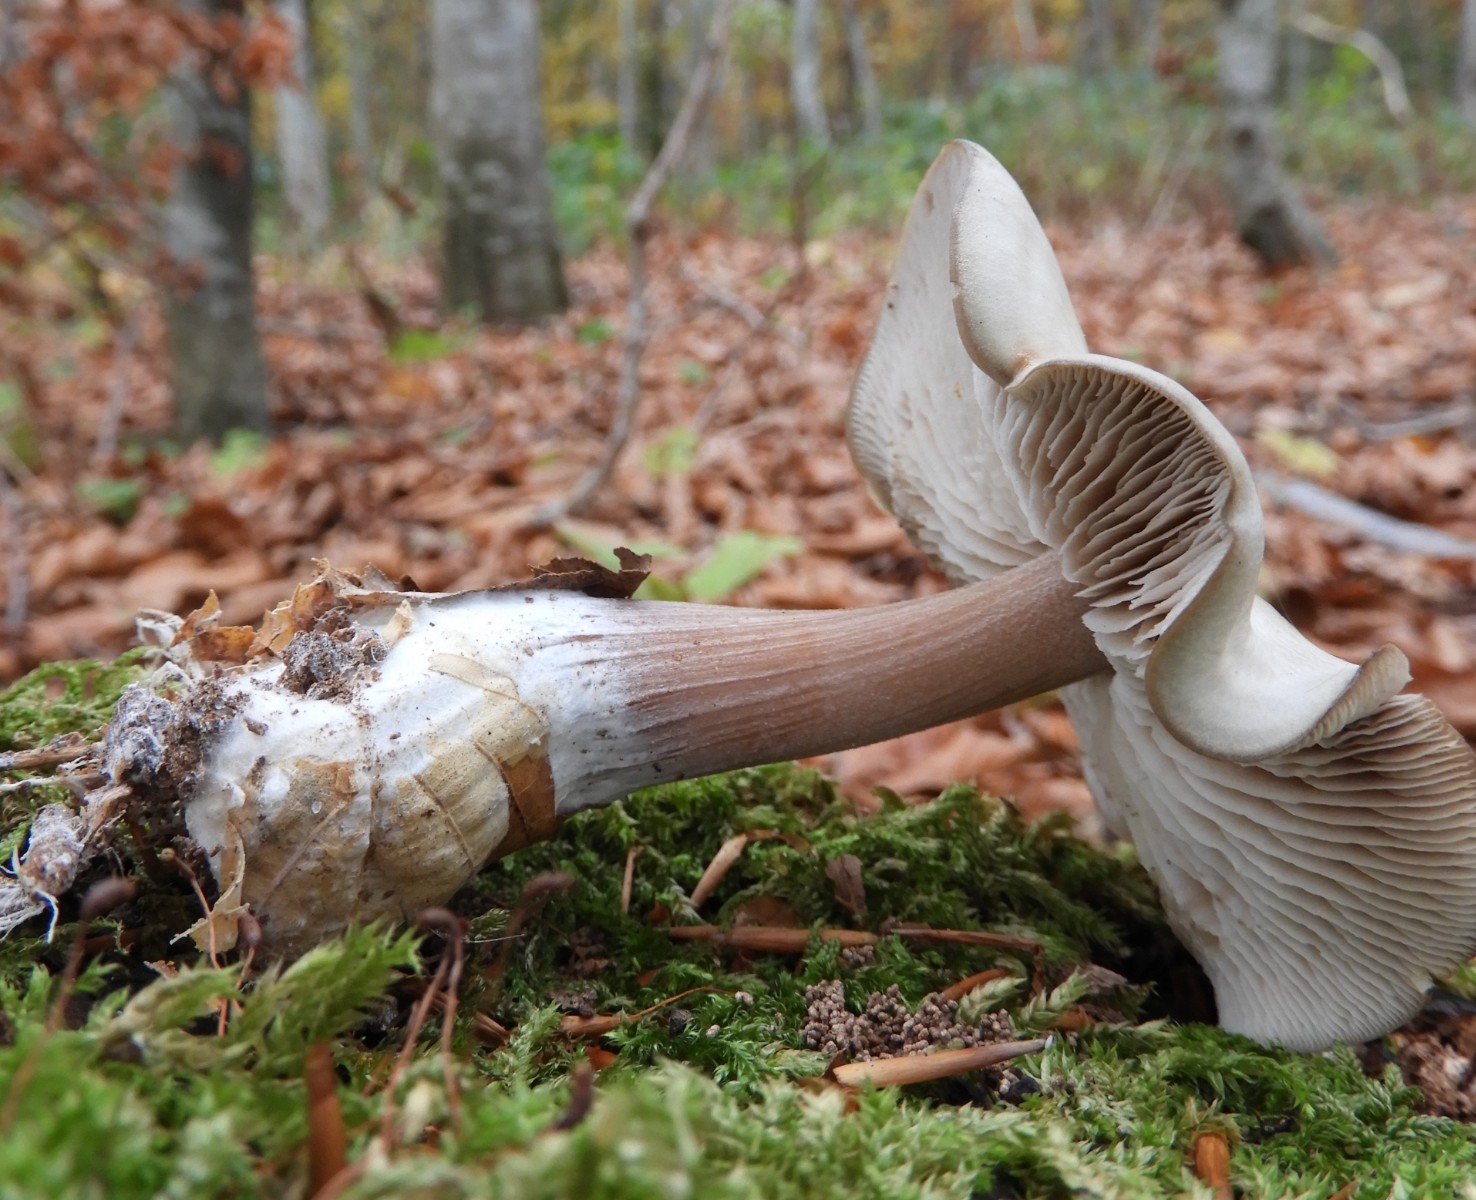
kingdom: Fungi
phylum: Basidiomycota
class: Agaricomycetes
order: Agaricales
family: Tricholomataceae
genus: Clitocybe
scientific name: Clitocybe nebularis
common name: tåge-tragthat
